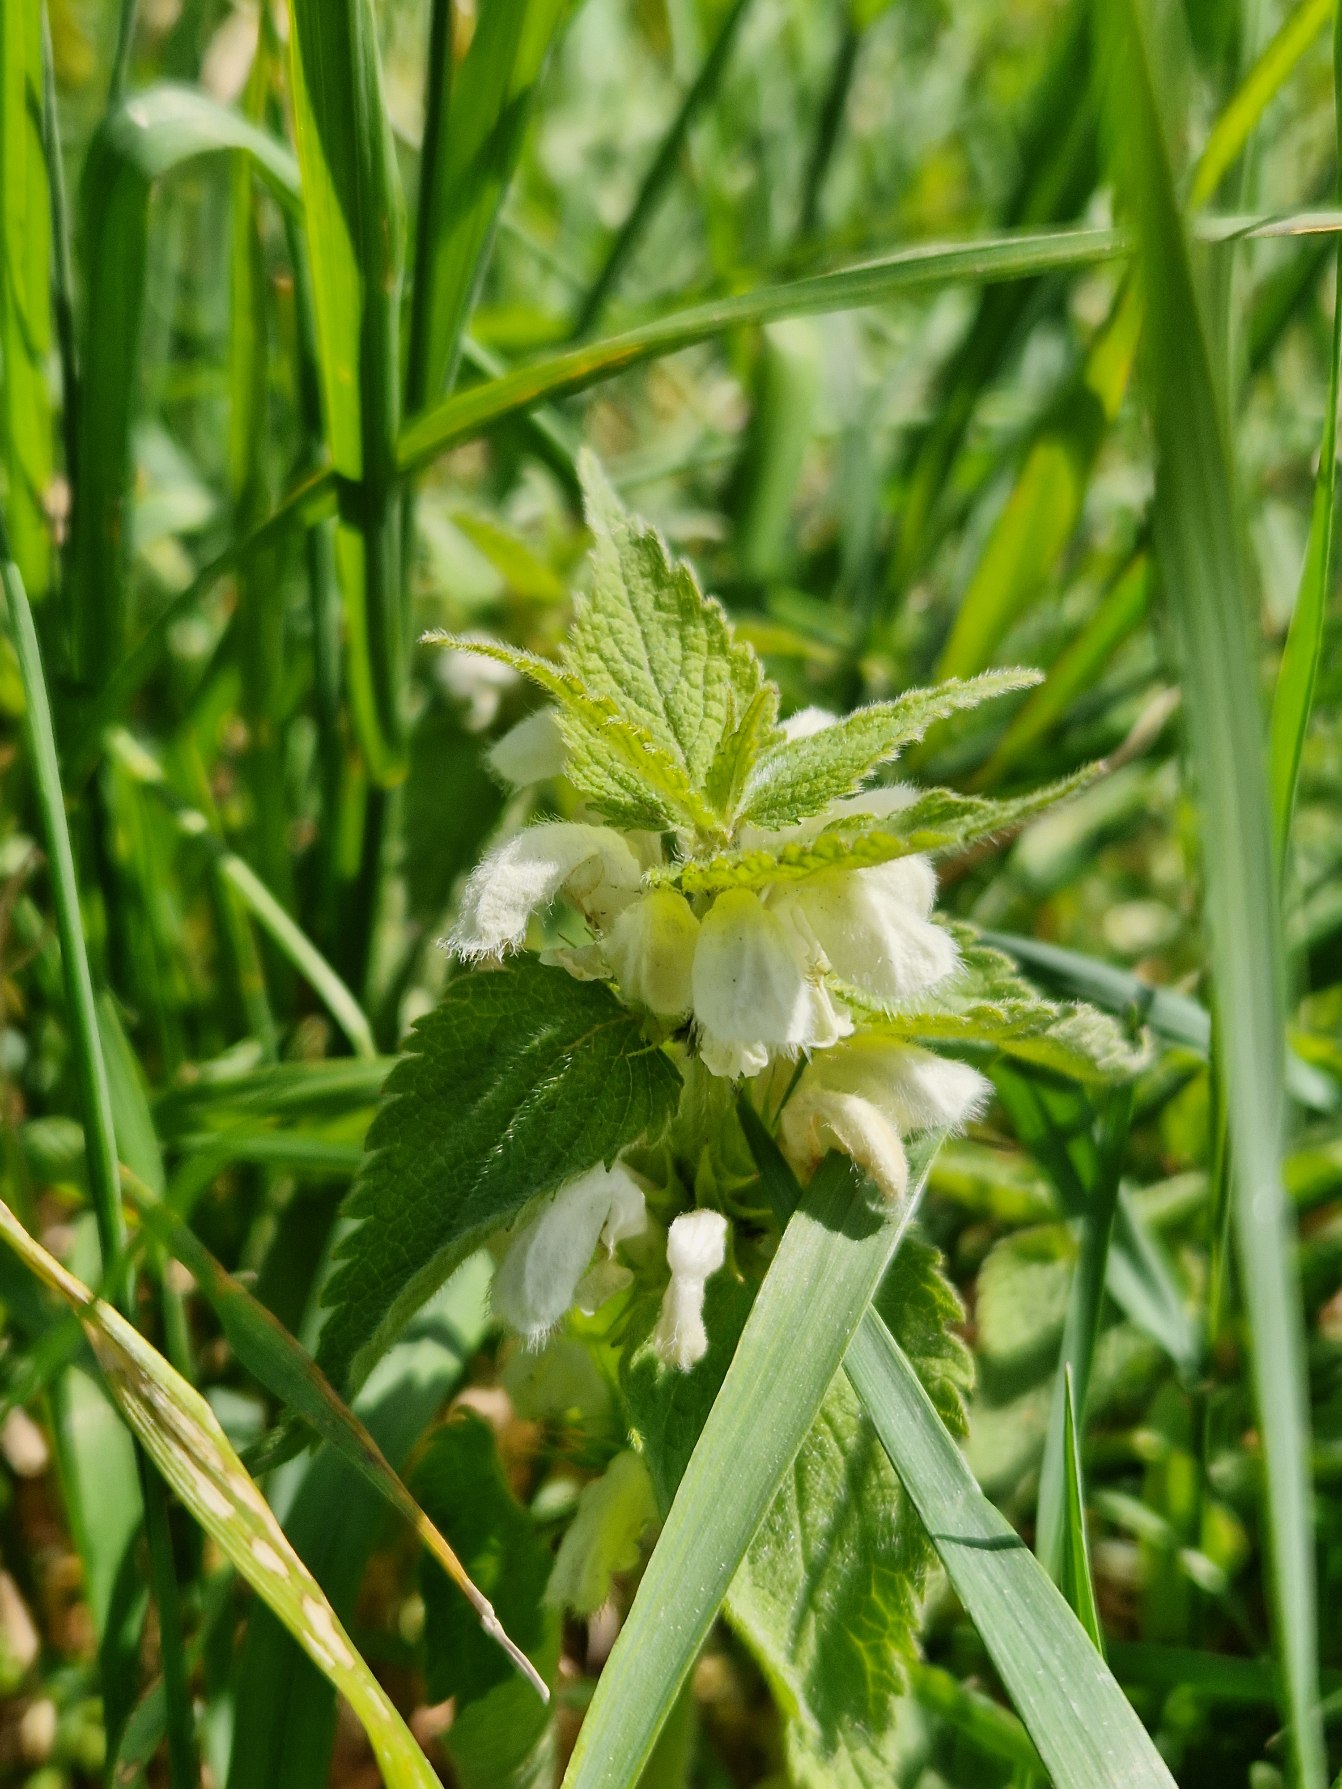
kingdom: Plantae
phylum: Tracheophyta
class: Magnoliopsida
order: Lamiales
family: Lamiaceae
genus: Lamium
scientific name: Lamium album
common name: Døvnælde
